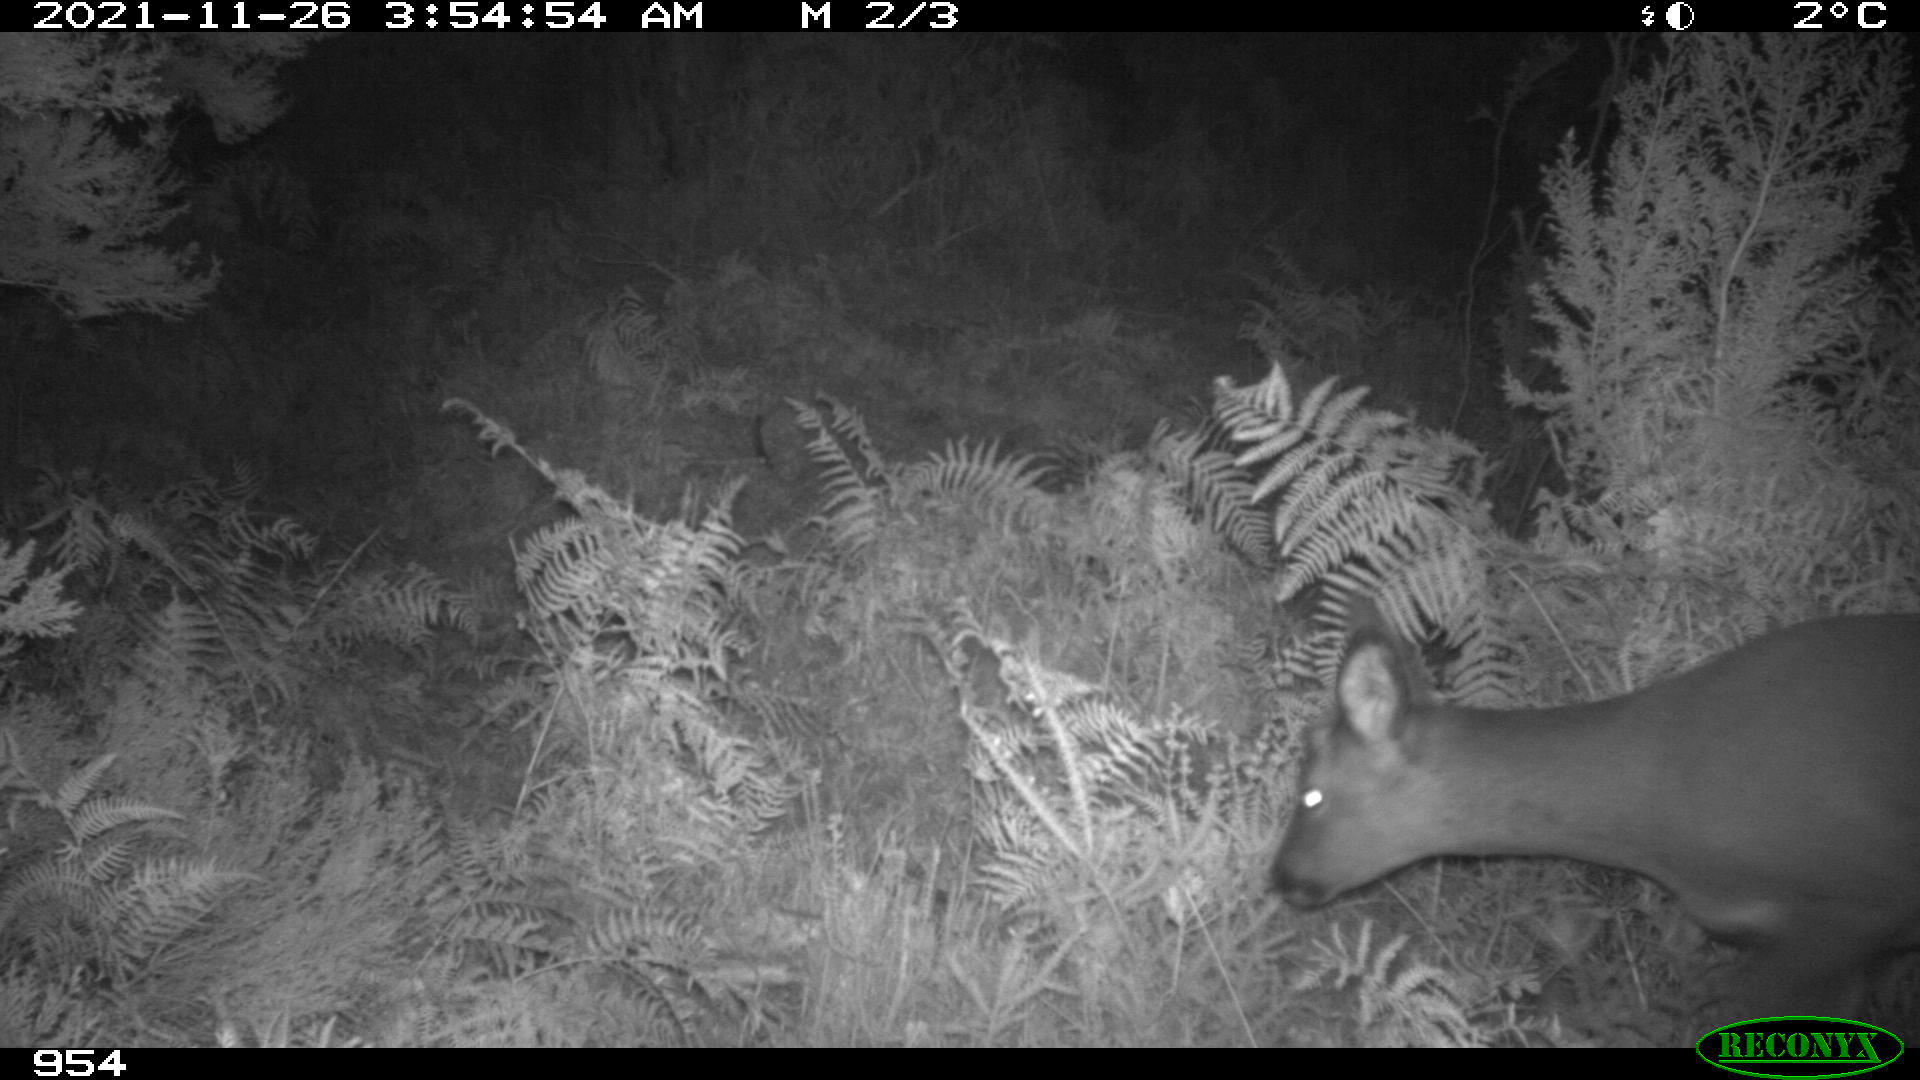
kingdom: Animalia
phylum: Chordata
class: Mammalia
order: Artiodactyla
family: Cervidae
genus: Capreolus
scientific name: Capreolus capreolus
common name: Western roe deer
